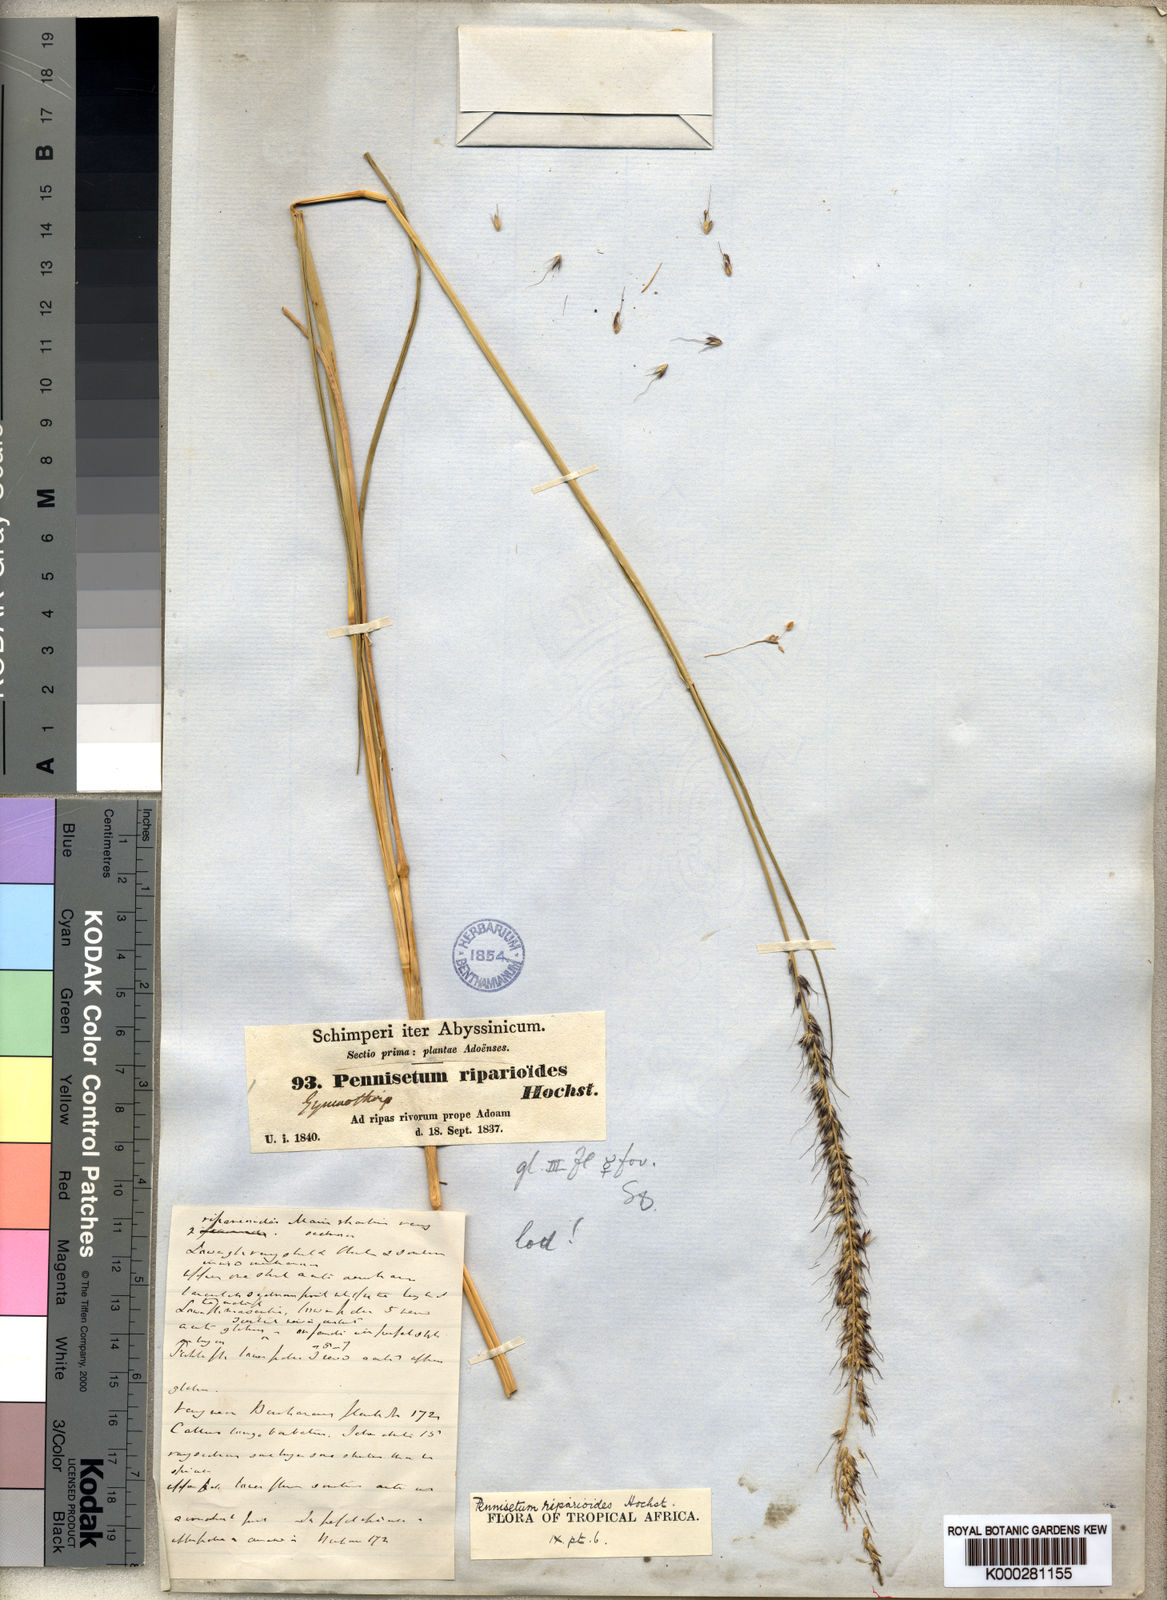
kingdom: Plantae
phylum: Tracheophyta
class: Liliopsida
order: Poales
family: Poaceae
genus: Cenchrus
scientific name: Cenchrus caudatus
